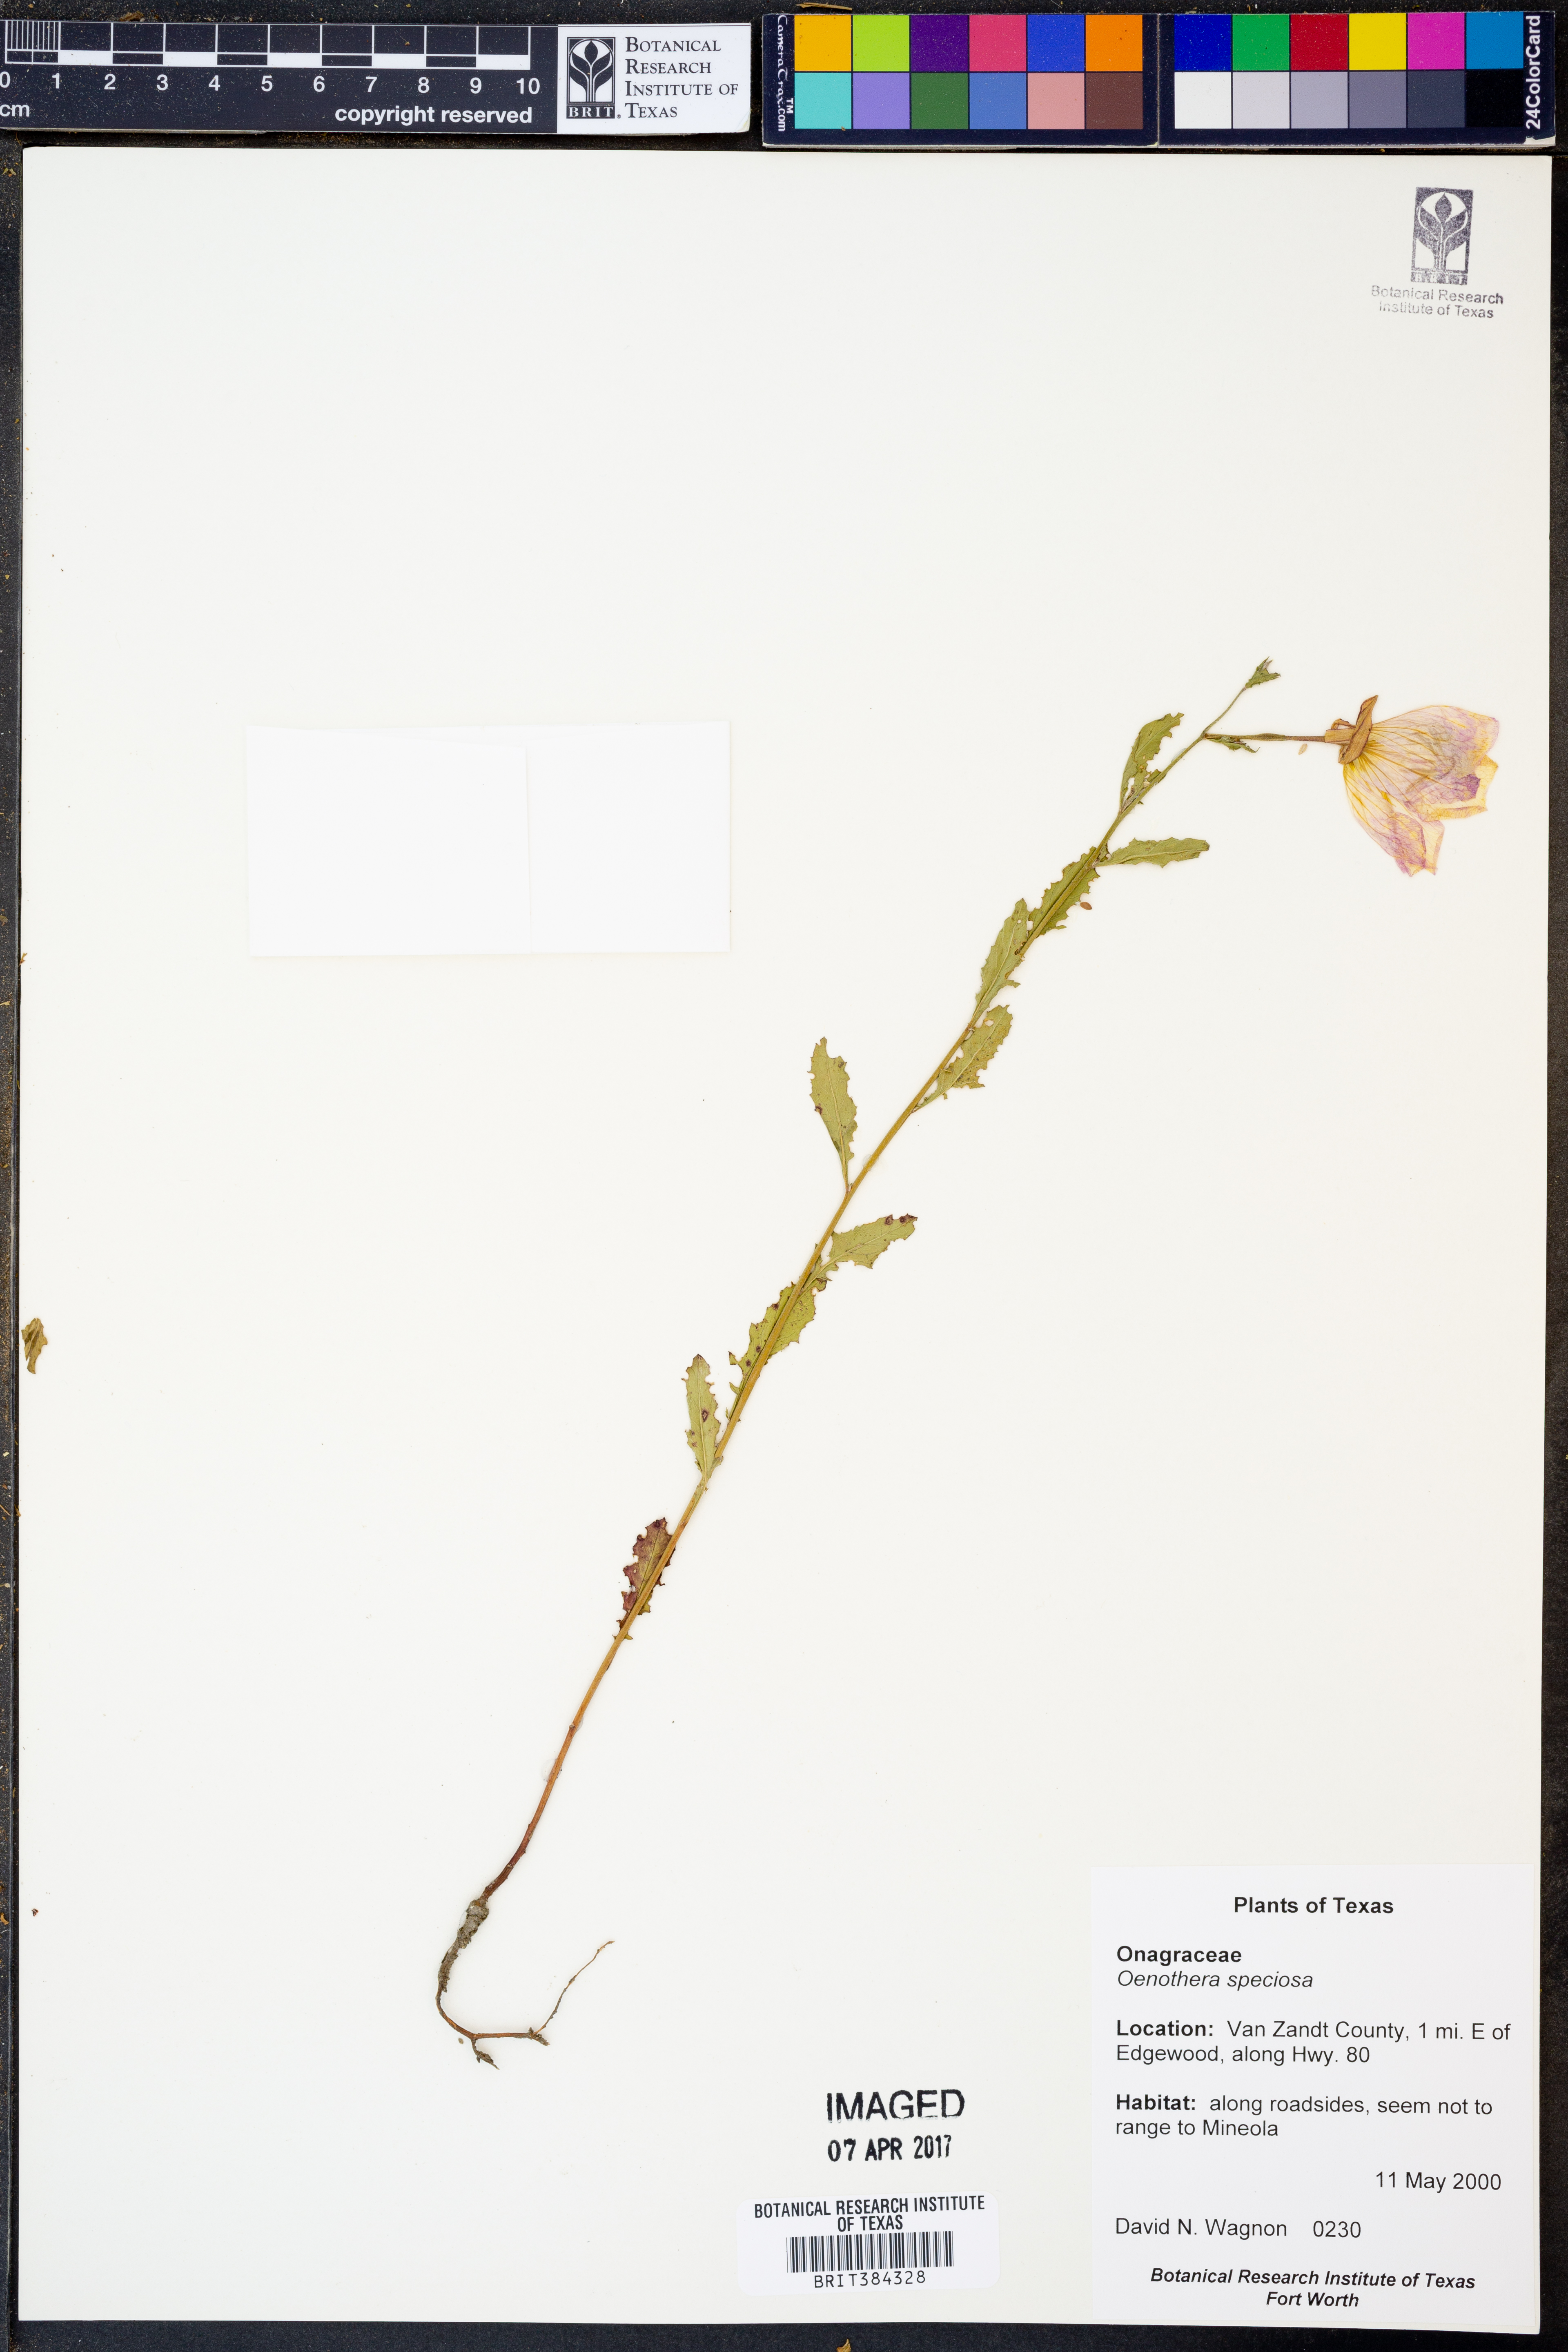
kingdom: Plantae
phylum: Tracheophyta
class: Magnoliopsida
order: Myrtales
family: Onagraceae
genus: Oenothera
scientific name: Oenothera speciosa
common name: White evening-primrose
